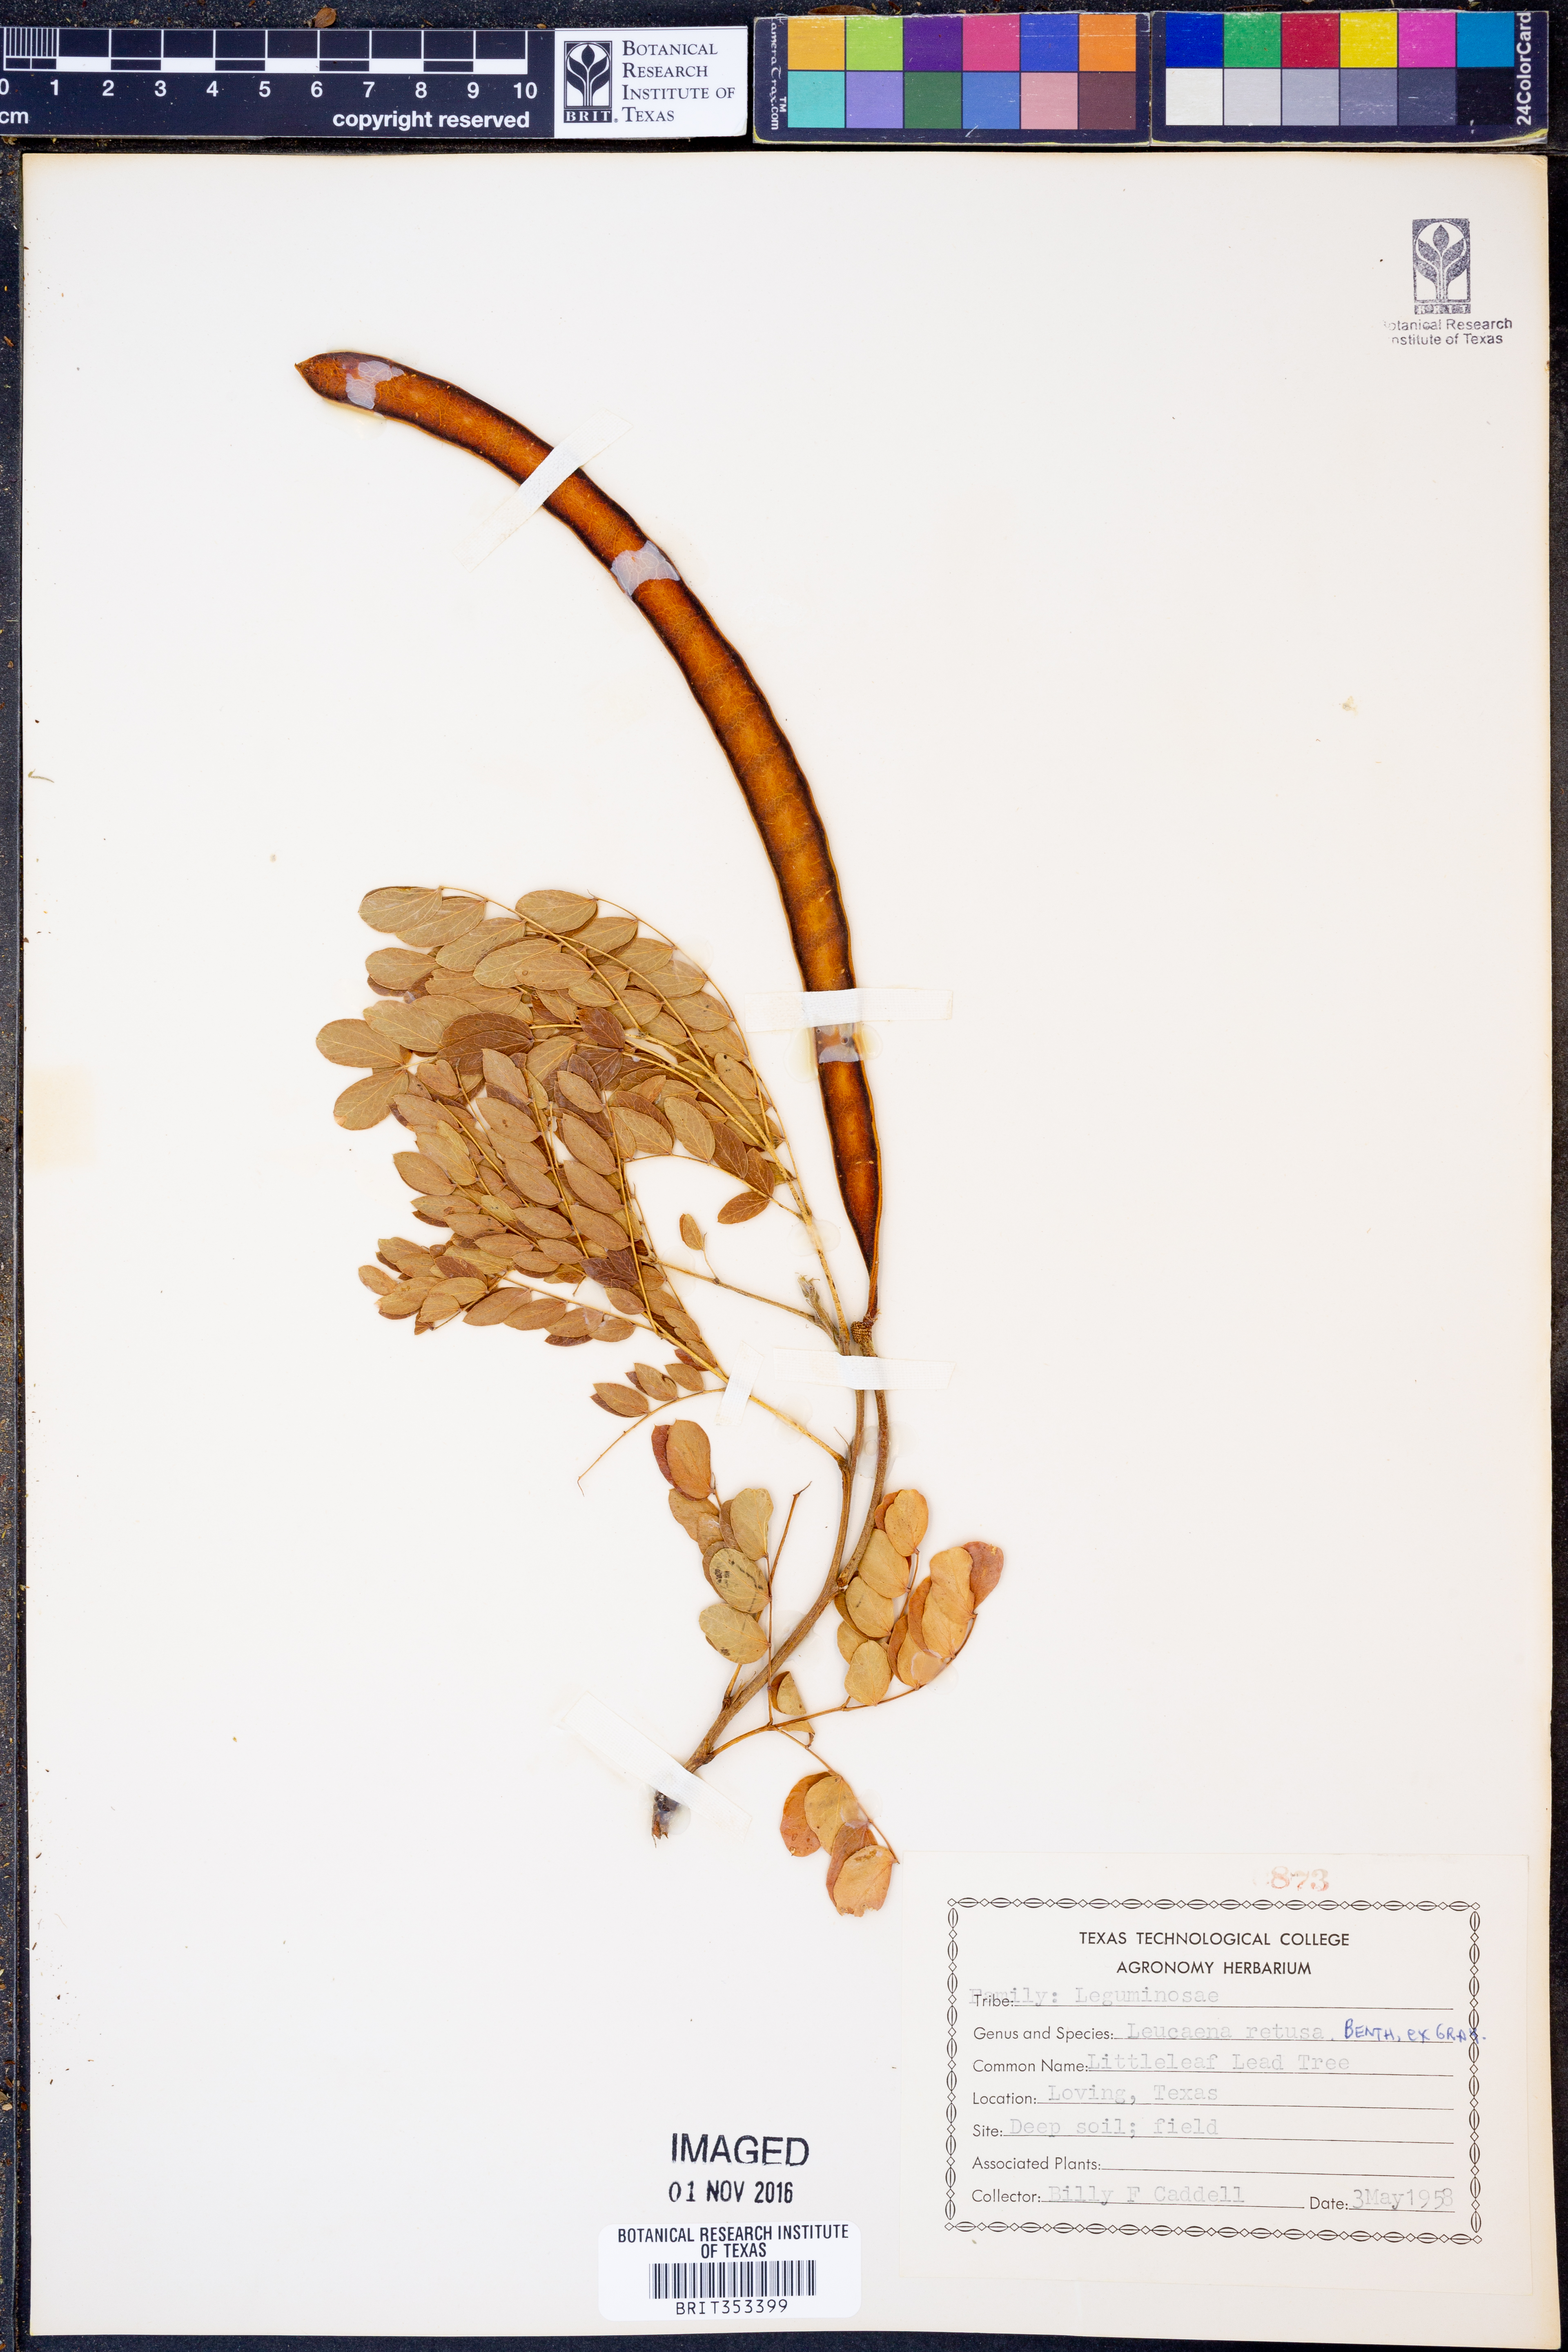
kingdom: Plantae
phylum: Tracheophyta
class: Magnoliopsida
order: Fabales
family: Fabaceae
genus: Leucaena
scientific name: Leucaena retusa
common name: Littleleaf leadtree
